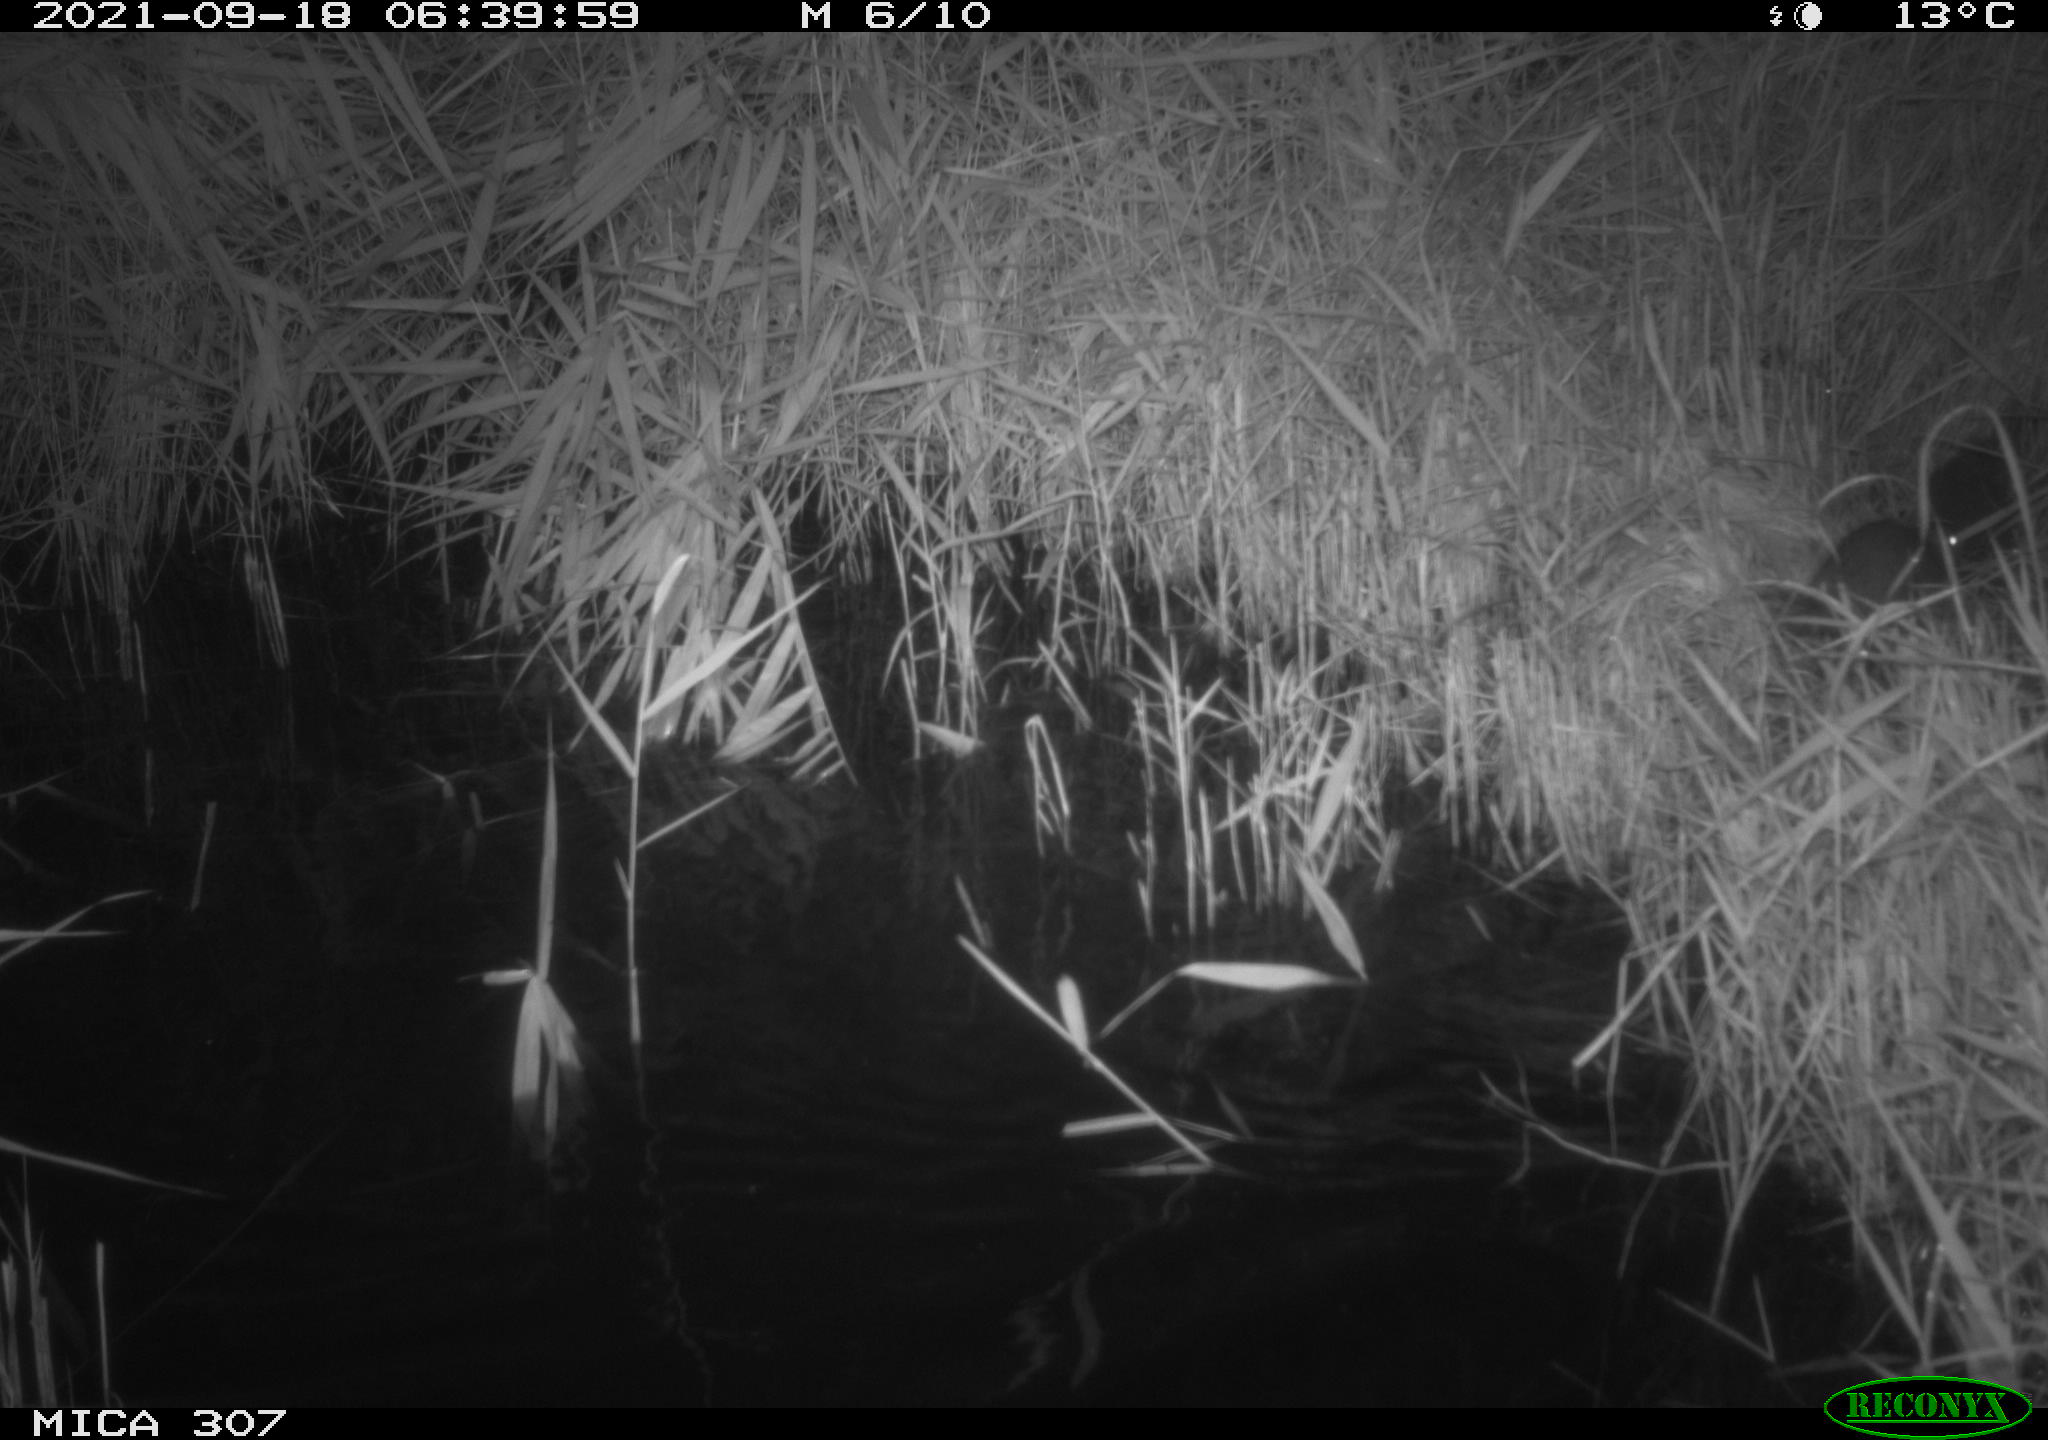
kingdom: Animalia
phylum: Chordata
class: Mammalia
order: Rodentia
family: Muridae
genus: Rattus
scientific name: Rattus norvegicus
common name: Brown rat
